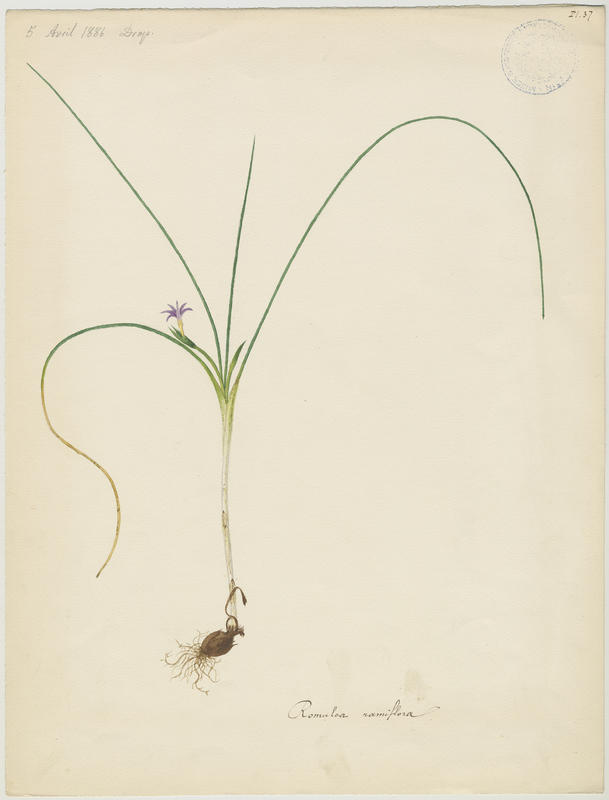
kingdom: Plantae
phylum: Tracheophyta
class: Liliopsida
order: Asparagales
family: Iridaceae
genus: Romulea
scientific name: Romulea ramiflora
